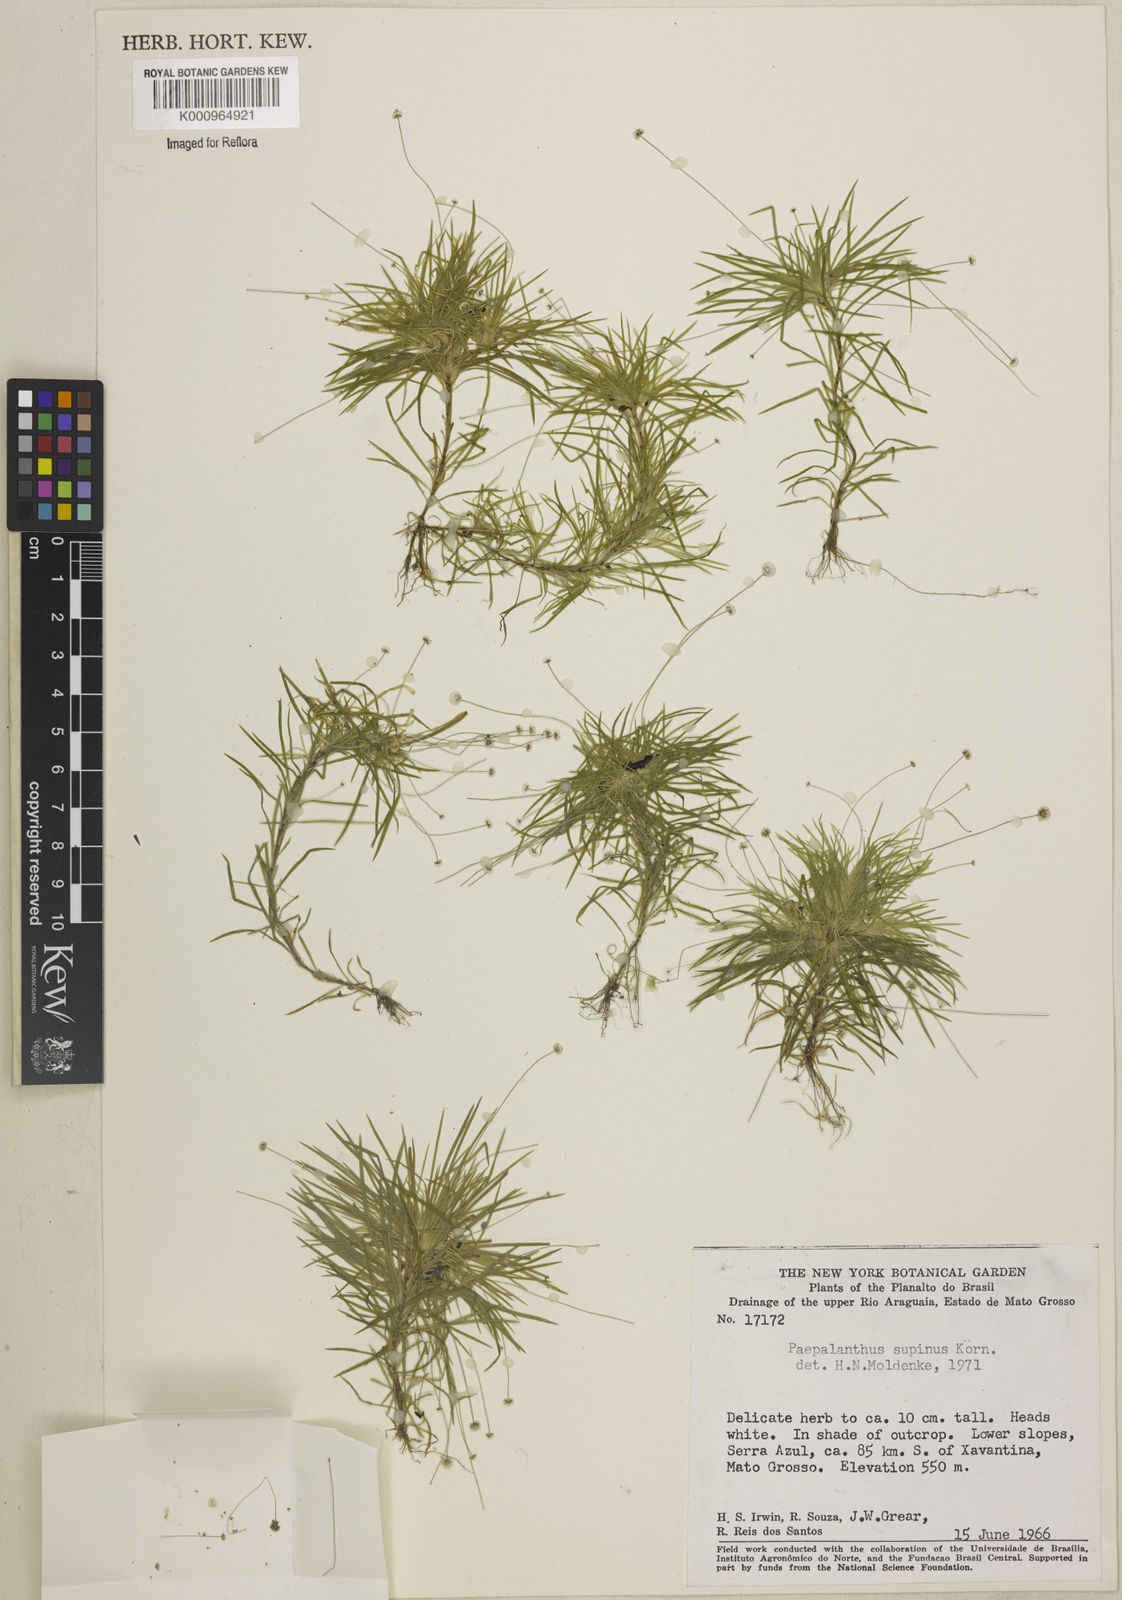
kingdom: Plantae
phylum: Tracheophyta
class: Liliopsida
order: Poales
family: Eriocaulaceae
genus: Paepalanthus
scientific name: Paepalanthus
